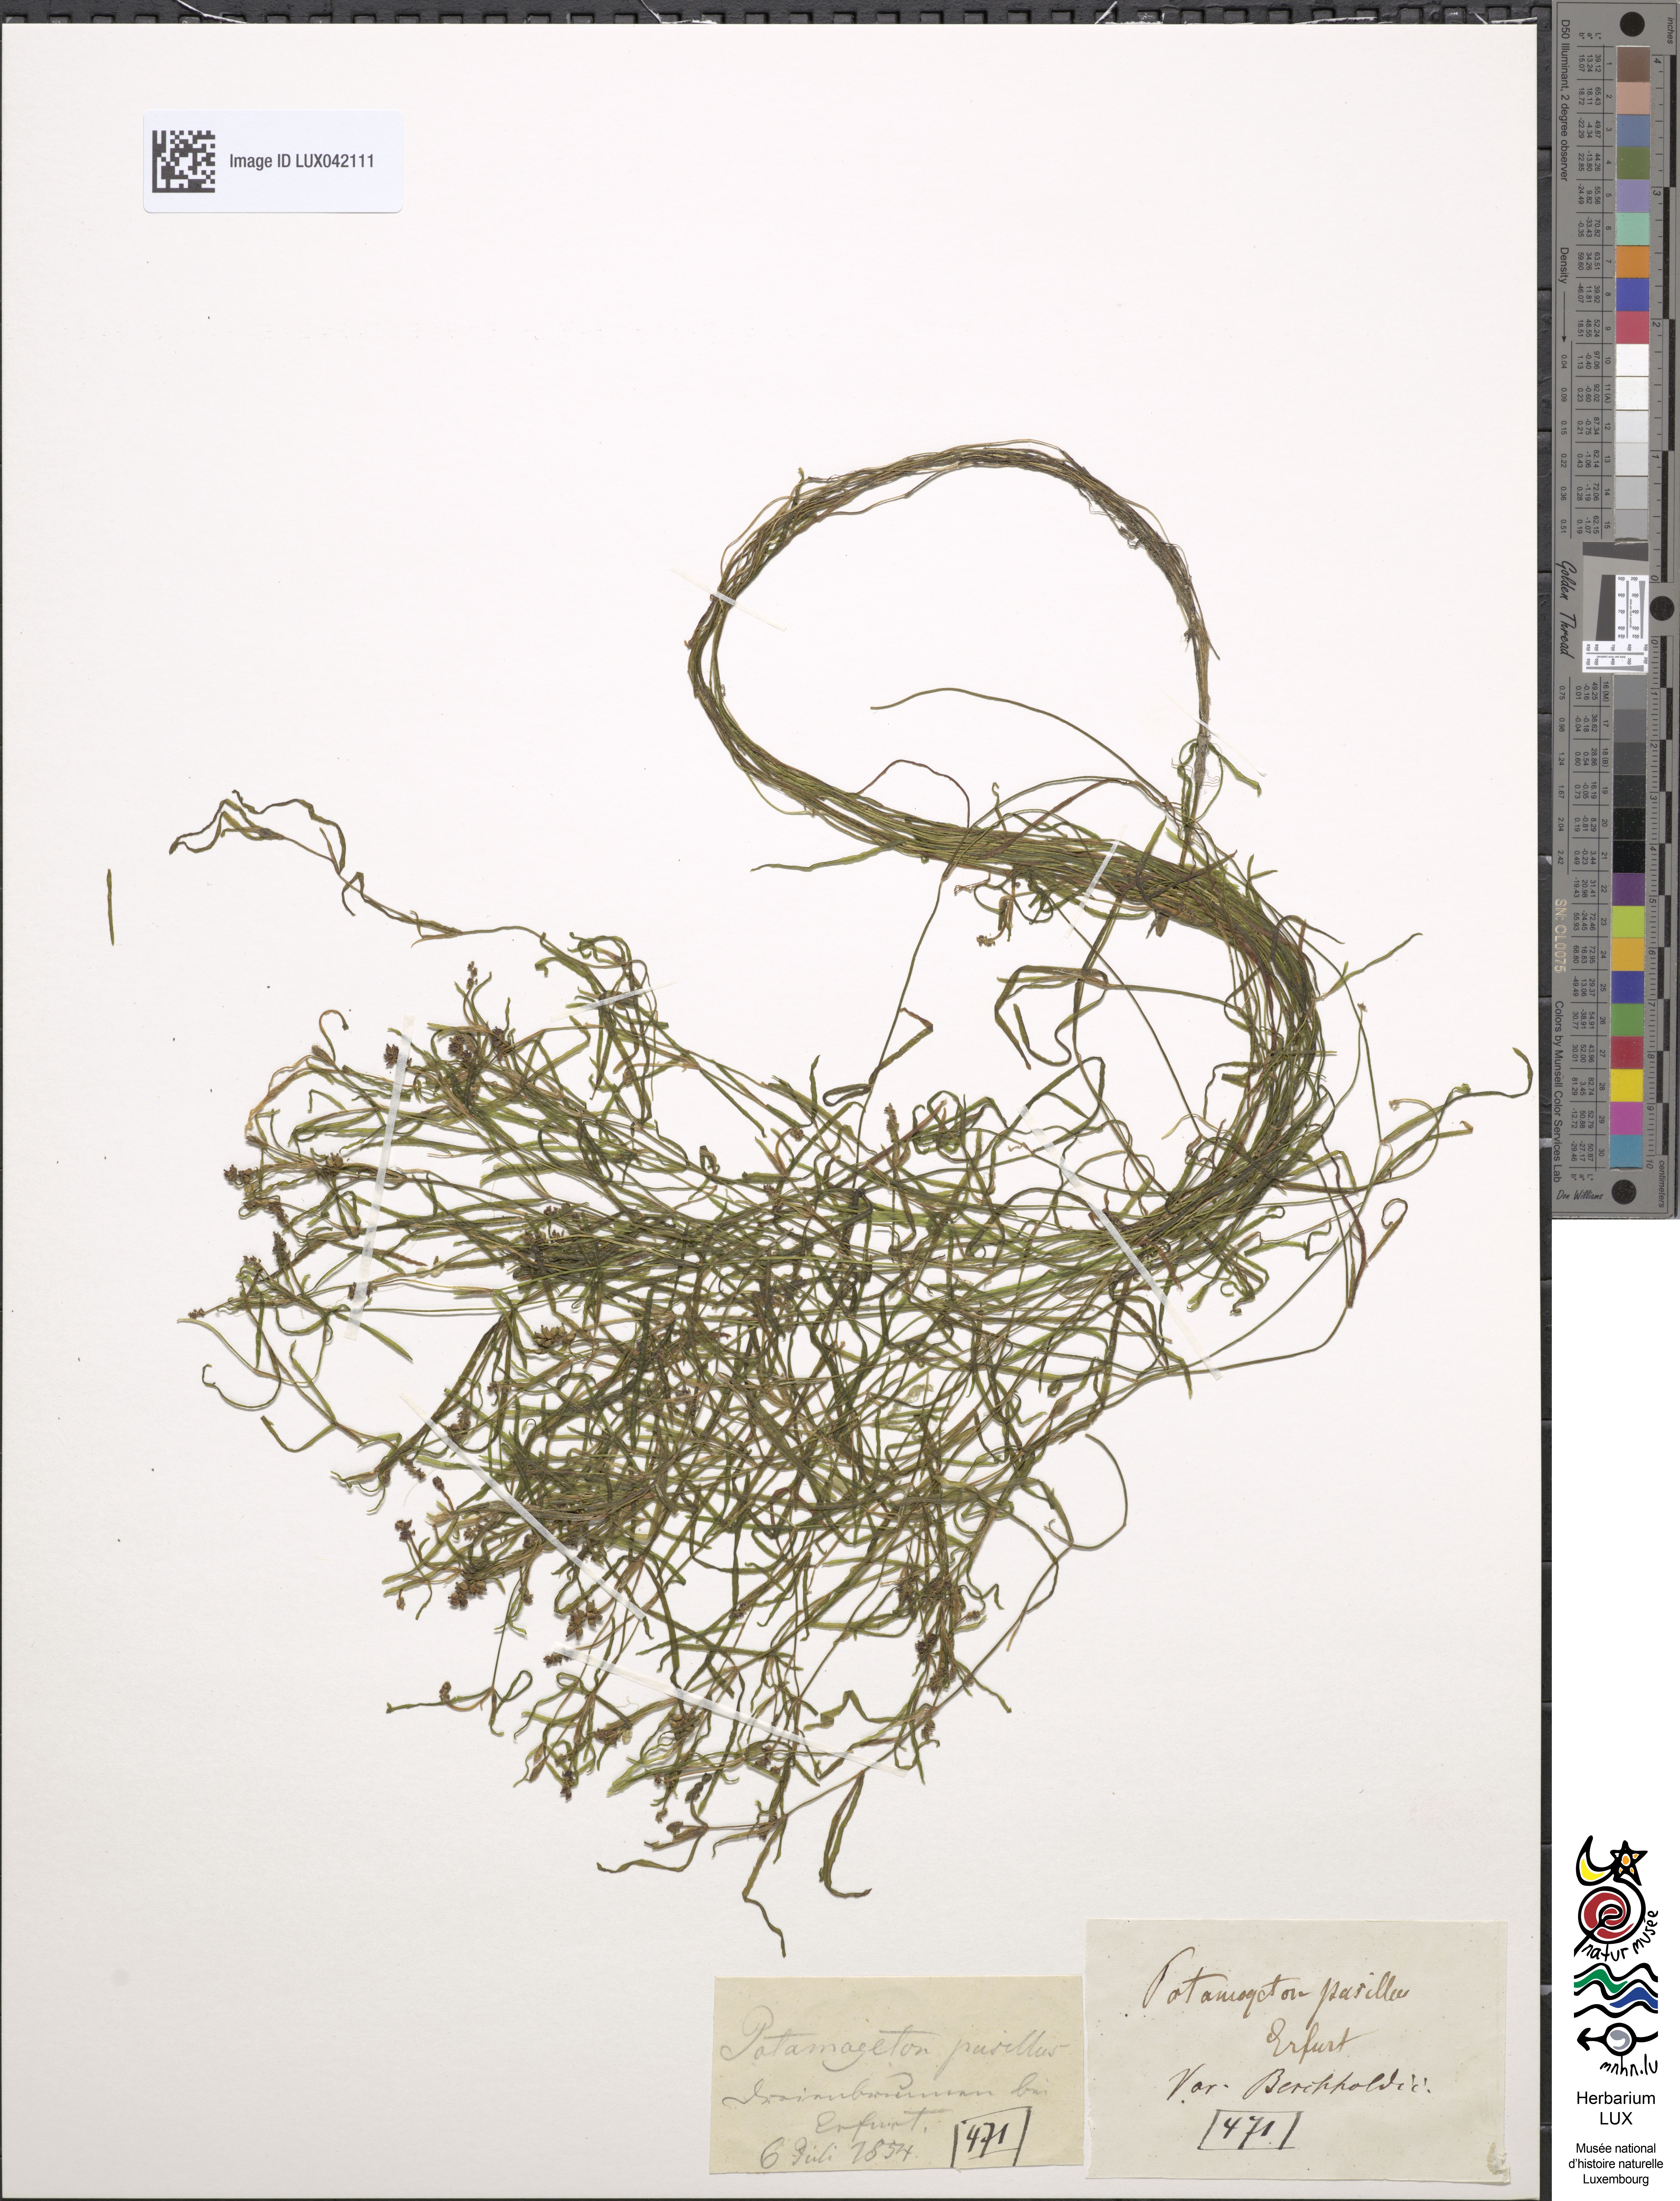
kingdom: Plantae
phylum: Tracheophyta
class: Liliopsida
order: Alismatales
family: Potamogetonaceae
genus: Potamogeton
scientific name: Potamogeton berchtoldii
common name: Small pondweed
